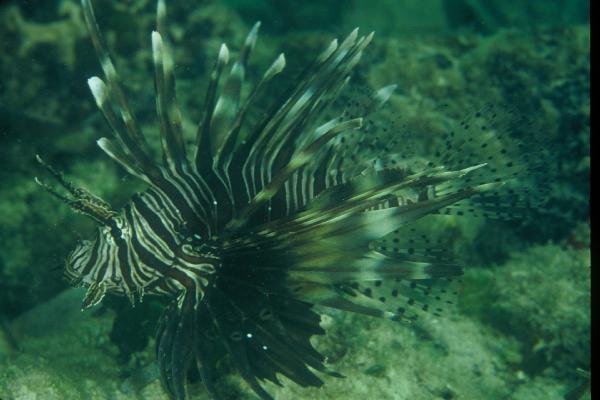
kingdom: Animalia
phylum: Chordata
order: Scorpaeniformes
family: Scorpaenidae
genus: Pterois
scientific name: Pterois miles
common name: Devil firefish
